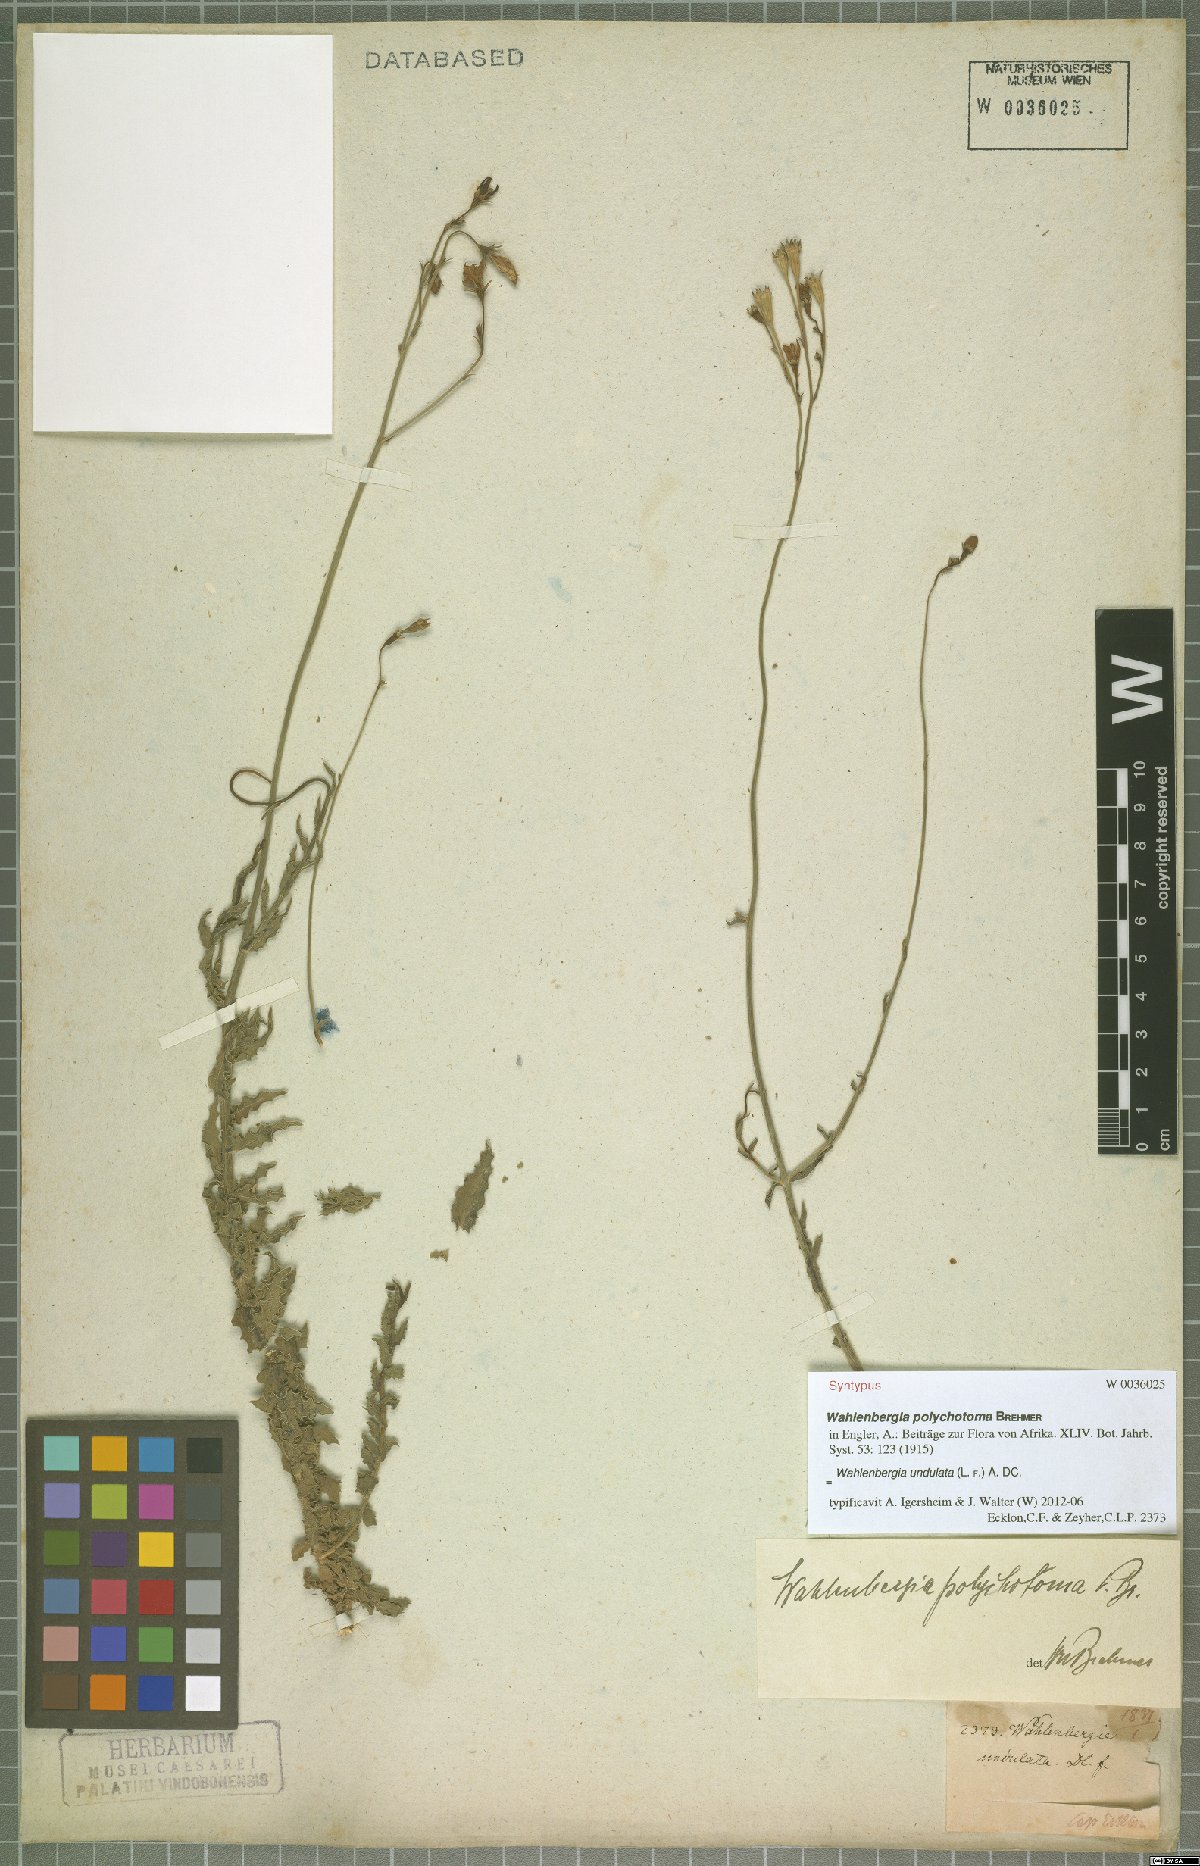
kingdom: Plantae
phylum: Tracheophyta
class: Magnoliopsida
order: Asterales
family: Campanulaceae
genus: Wahlenbergia
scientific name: Wahlenbergia undulata
